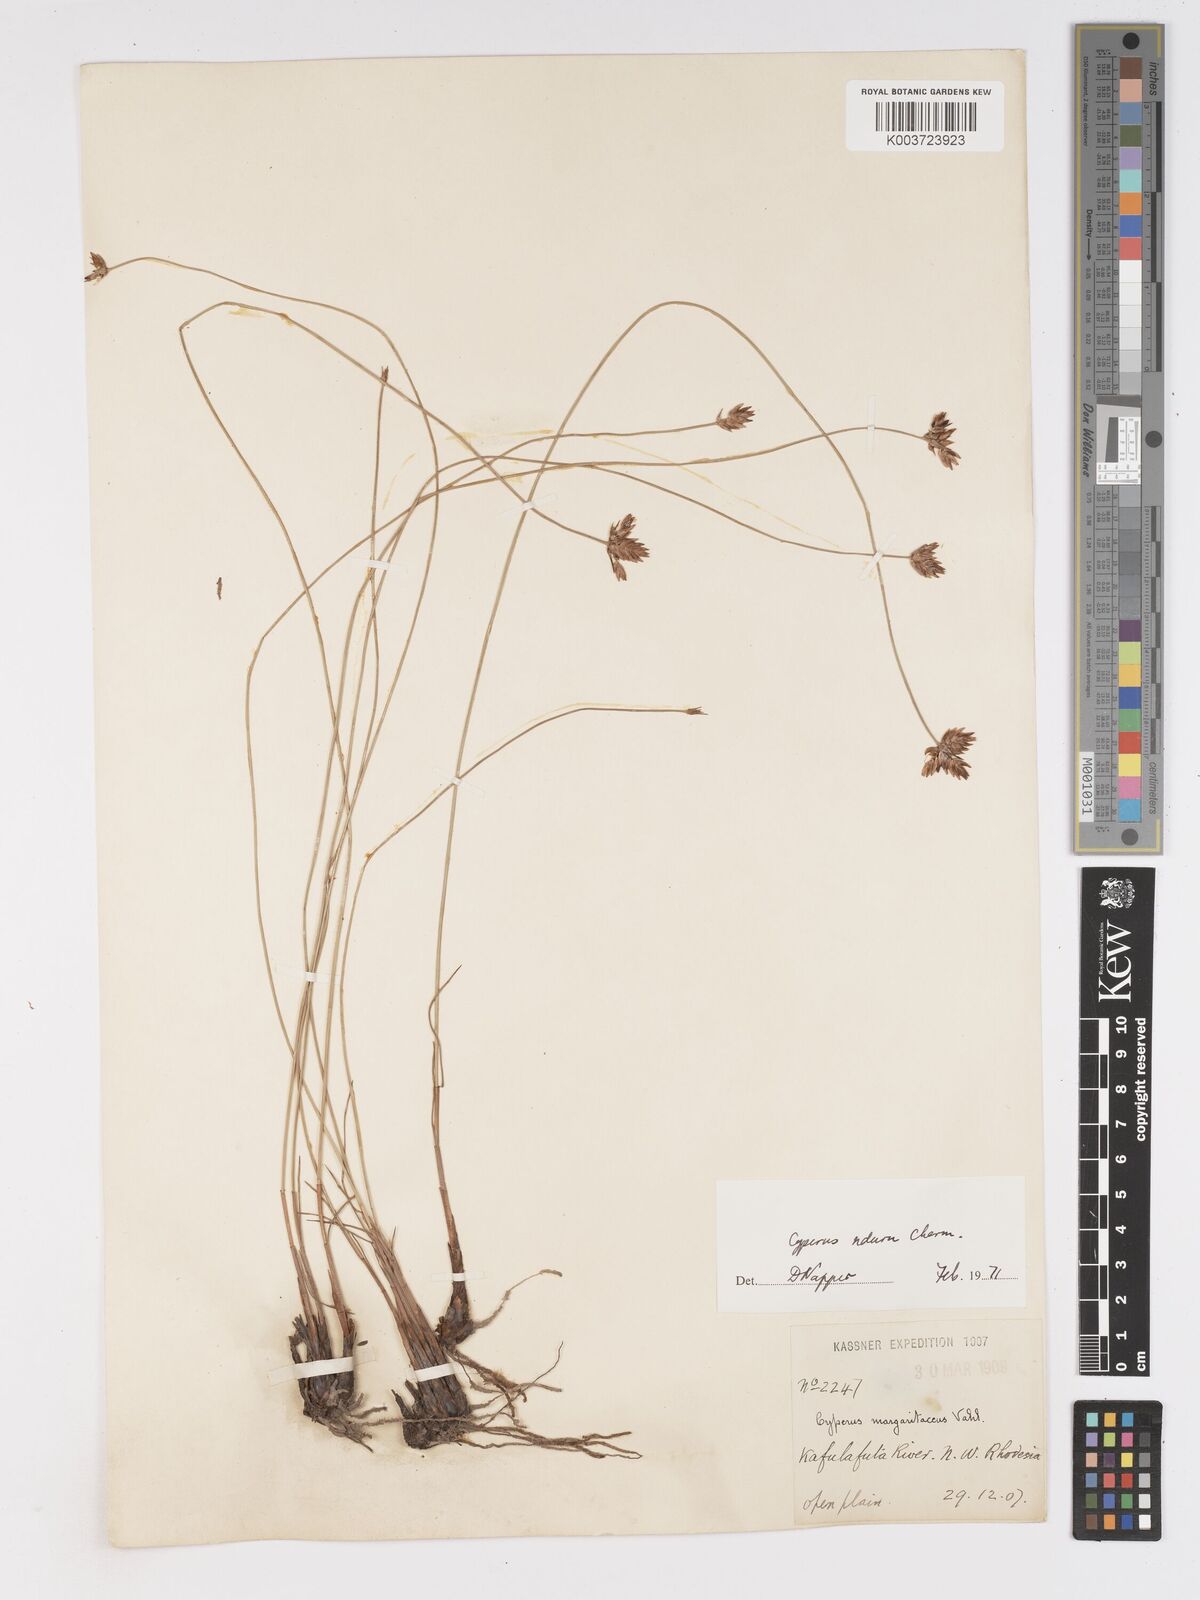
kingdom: Plantae
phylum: Tracheophyta
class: Liliopsida
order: Poales
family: Cyperaceae
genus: Cyperus
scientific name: Cyperus nduru
